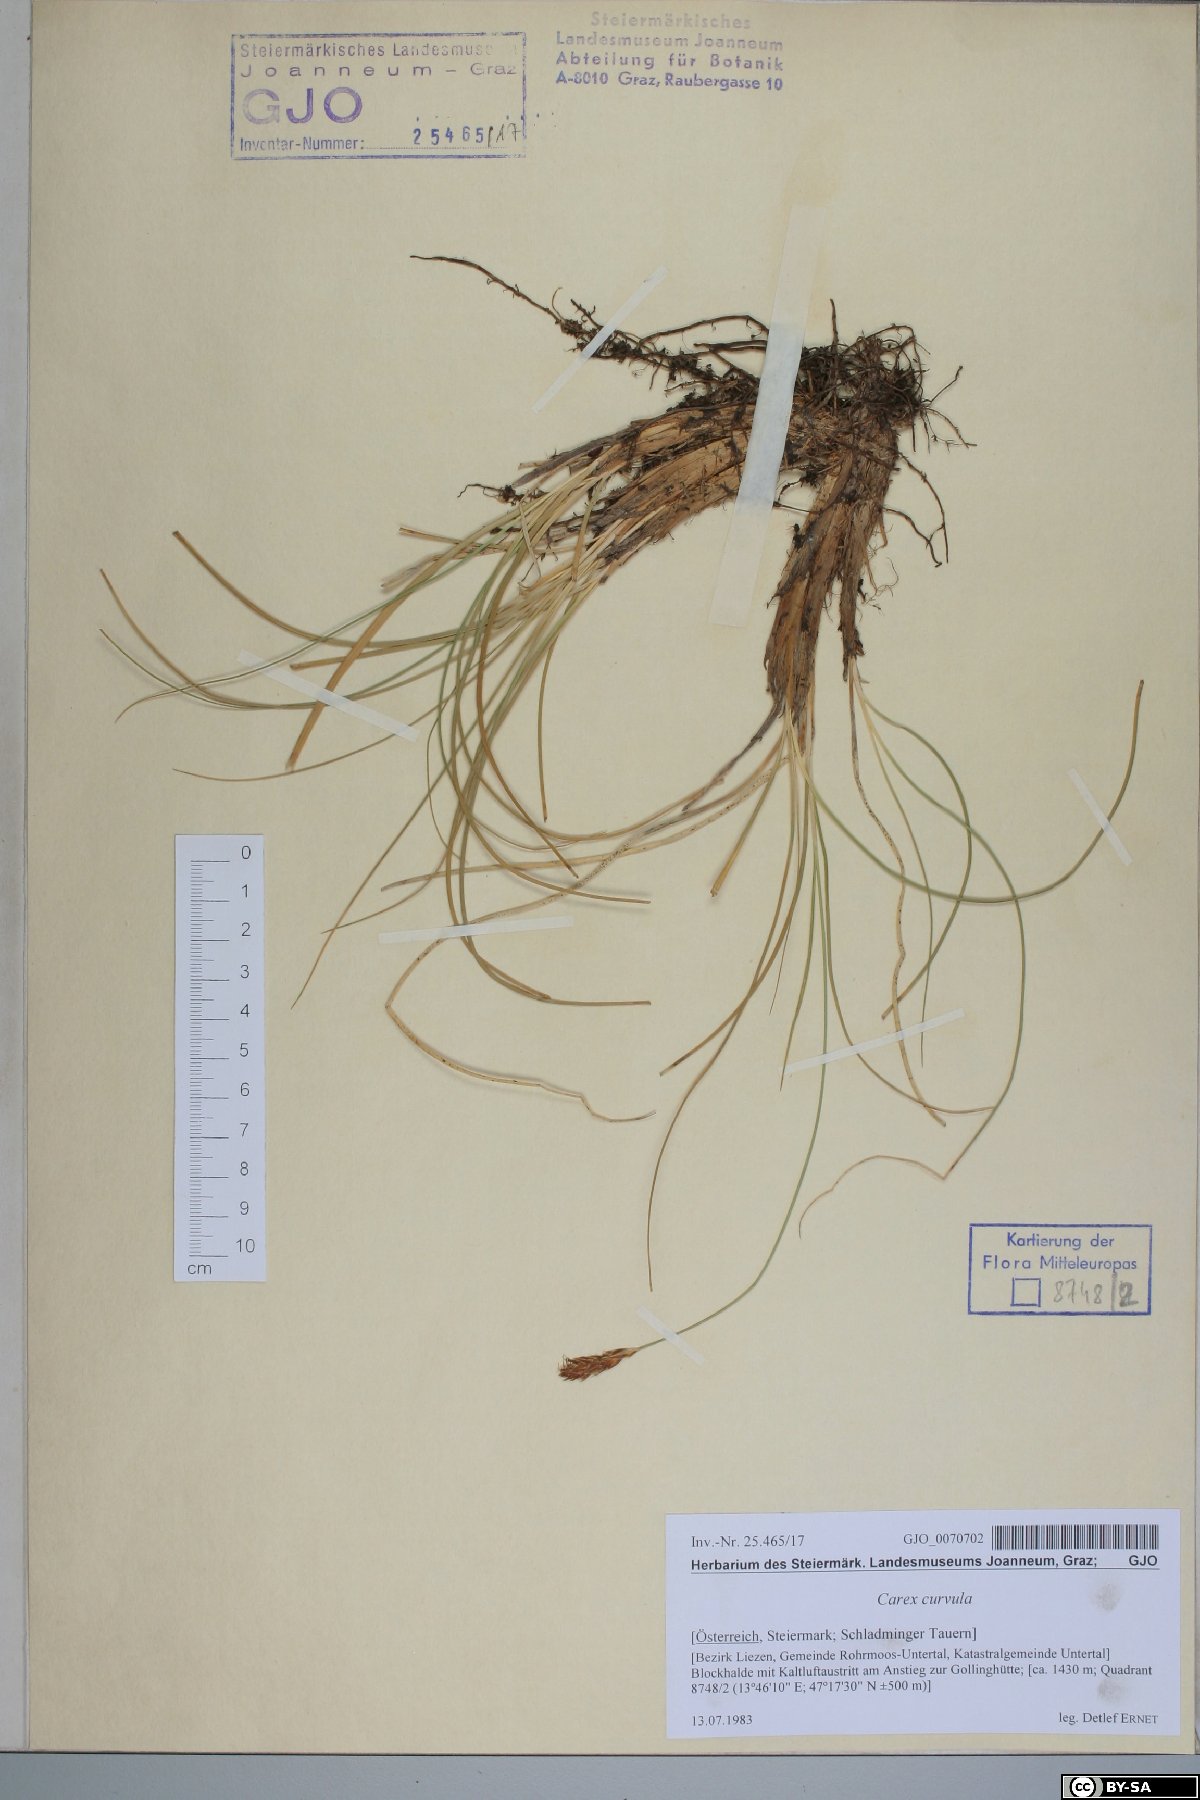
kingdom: Plantae
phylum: Tracheophyta
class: Liliopsida
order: Poales
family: Cyperaceae
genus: Carex
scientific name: Carex curvula
